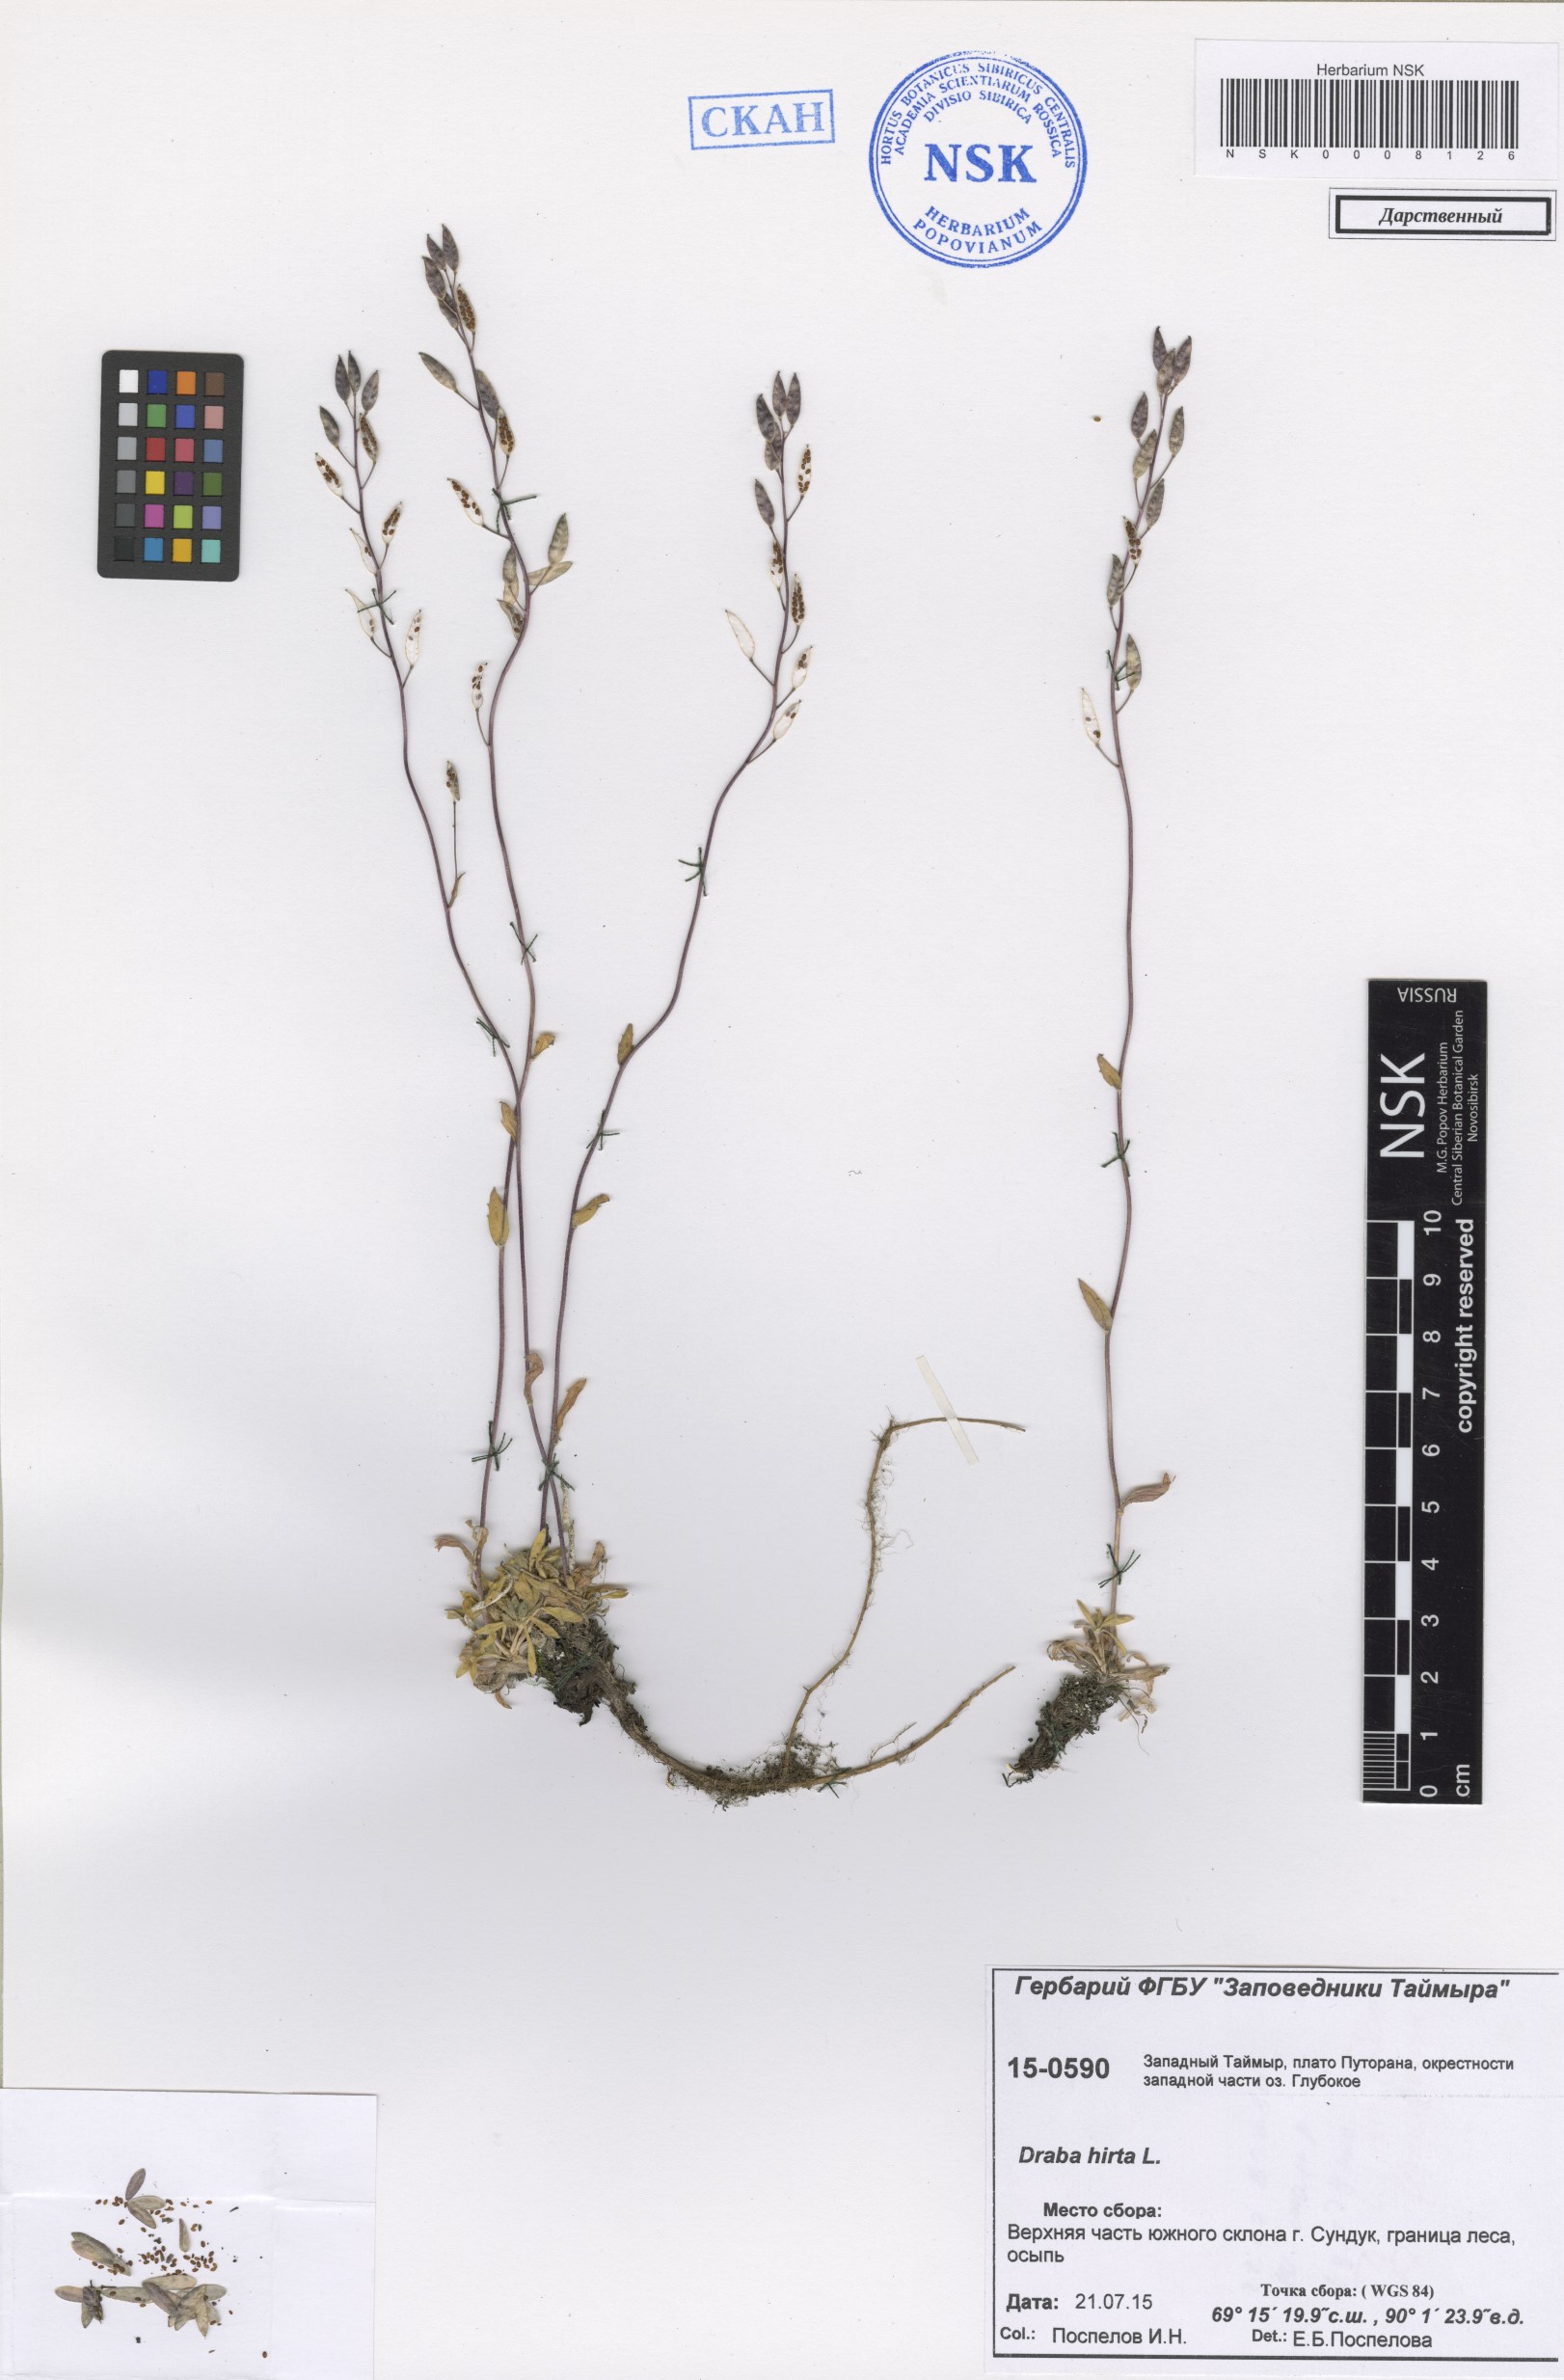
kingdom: Plantae
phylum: Tracheophyta
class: Magnoliopsida
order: Brassicales
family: Brassicaceae
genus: Draba
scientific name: Draba glabella
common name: Glaucous draba
